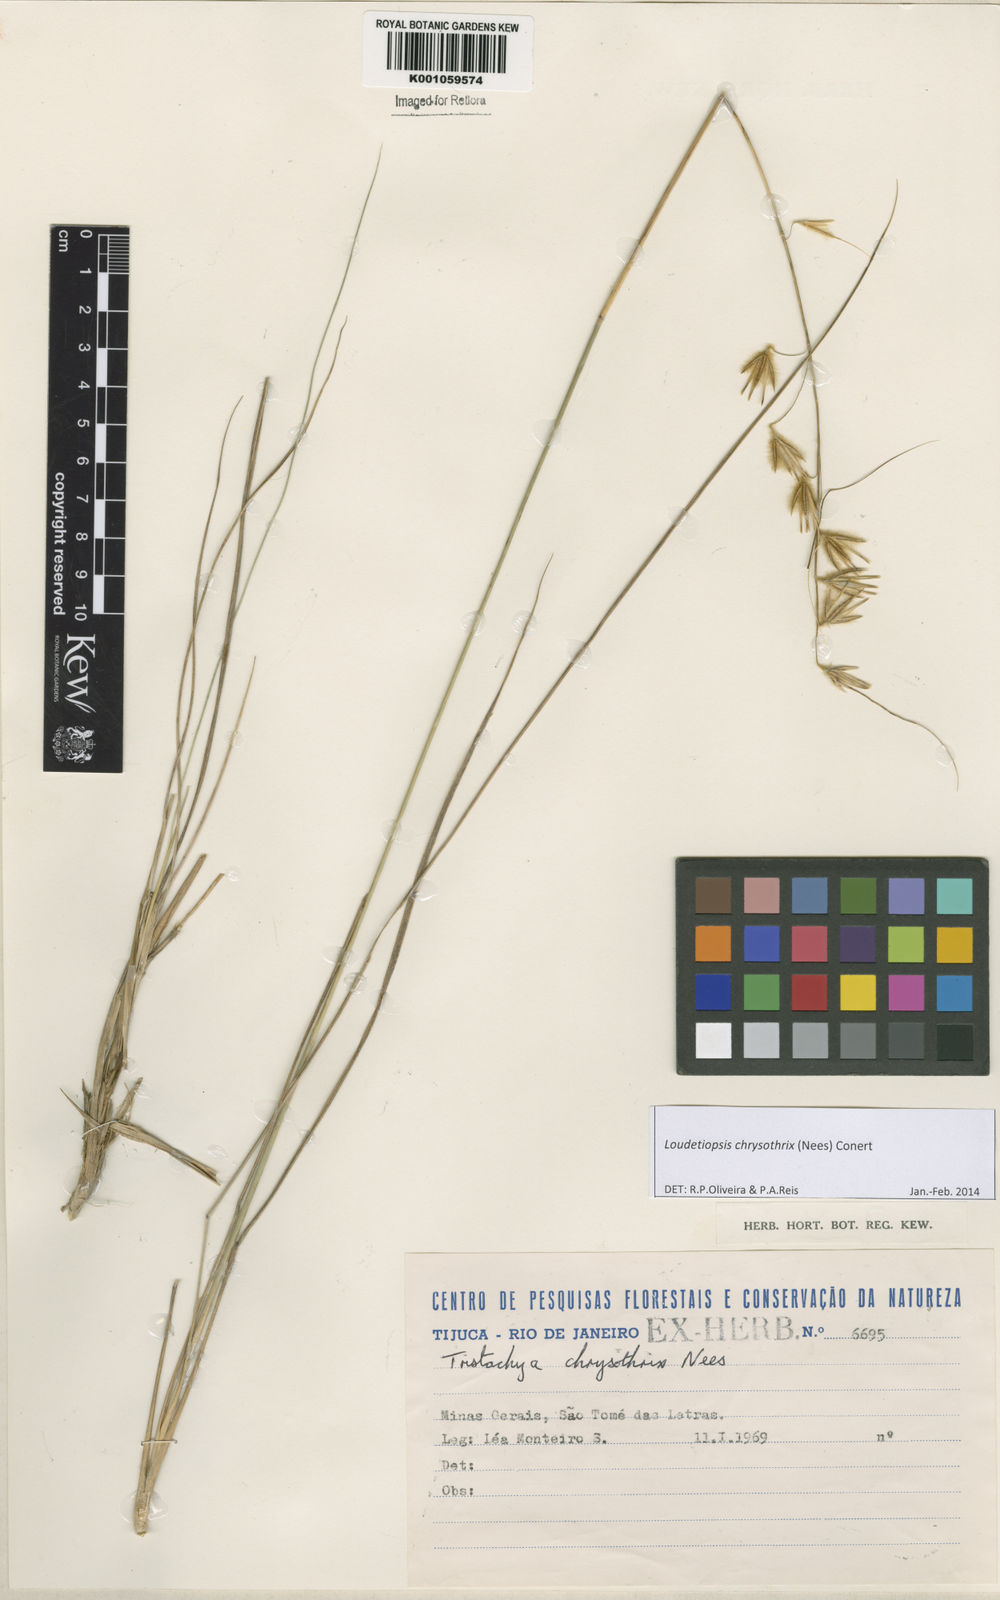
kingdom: Plantae
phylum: Tracheophyta
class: Liliopsida
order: Poales
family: Poaceae
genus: Loudetiopsis
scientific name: Loudetiopsis chrysothrix
